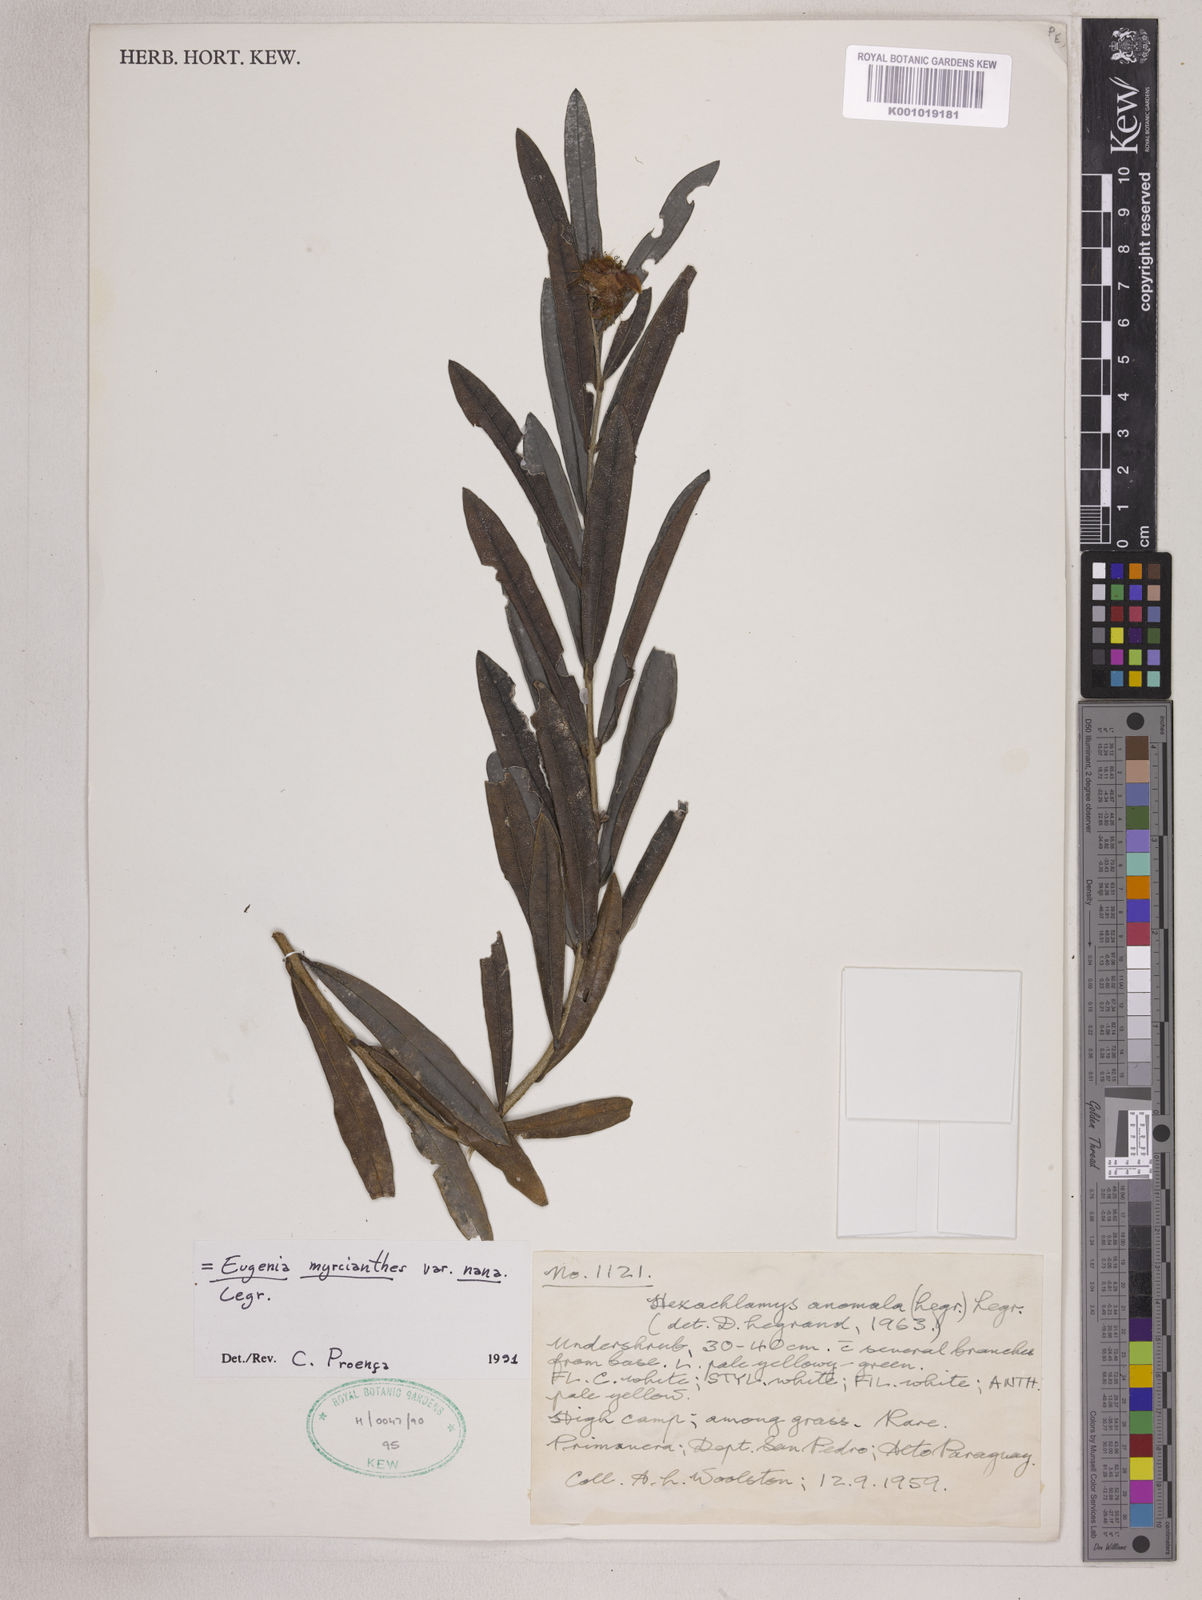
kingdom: Plantae
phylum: Tracheophyta
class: Magnoliopsida
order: Myrtales
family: Myrtaceae
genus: Eugenia
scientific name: Eugenia myrcianthes
